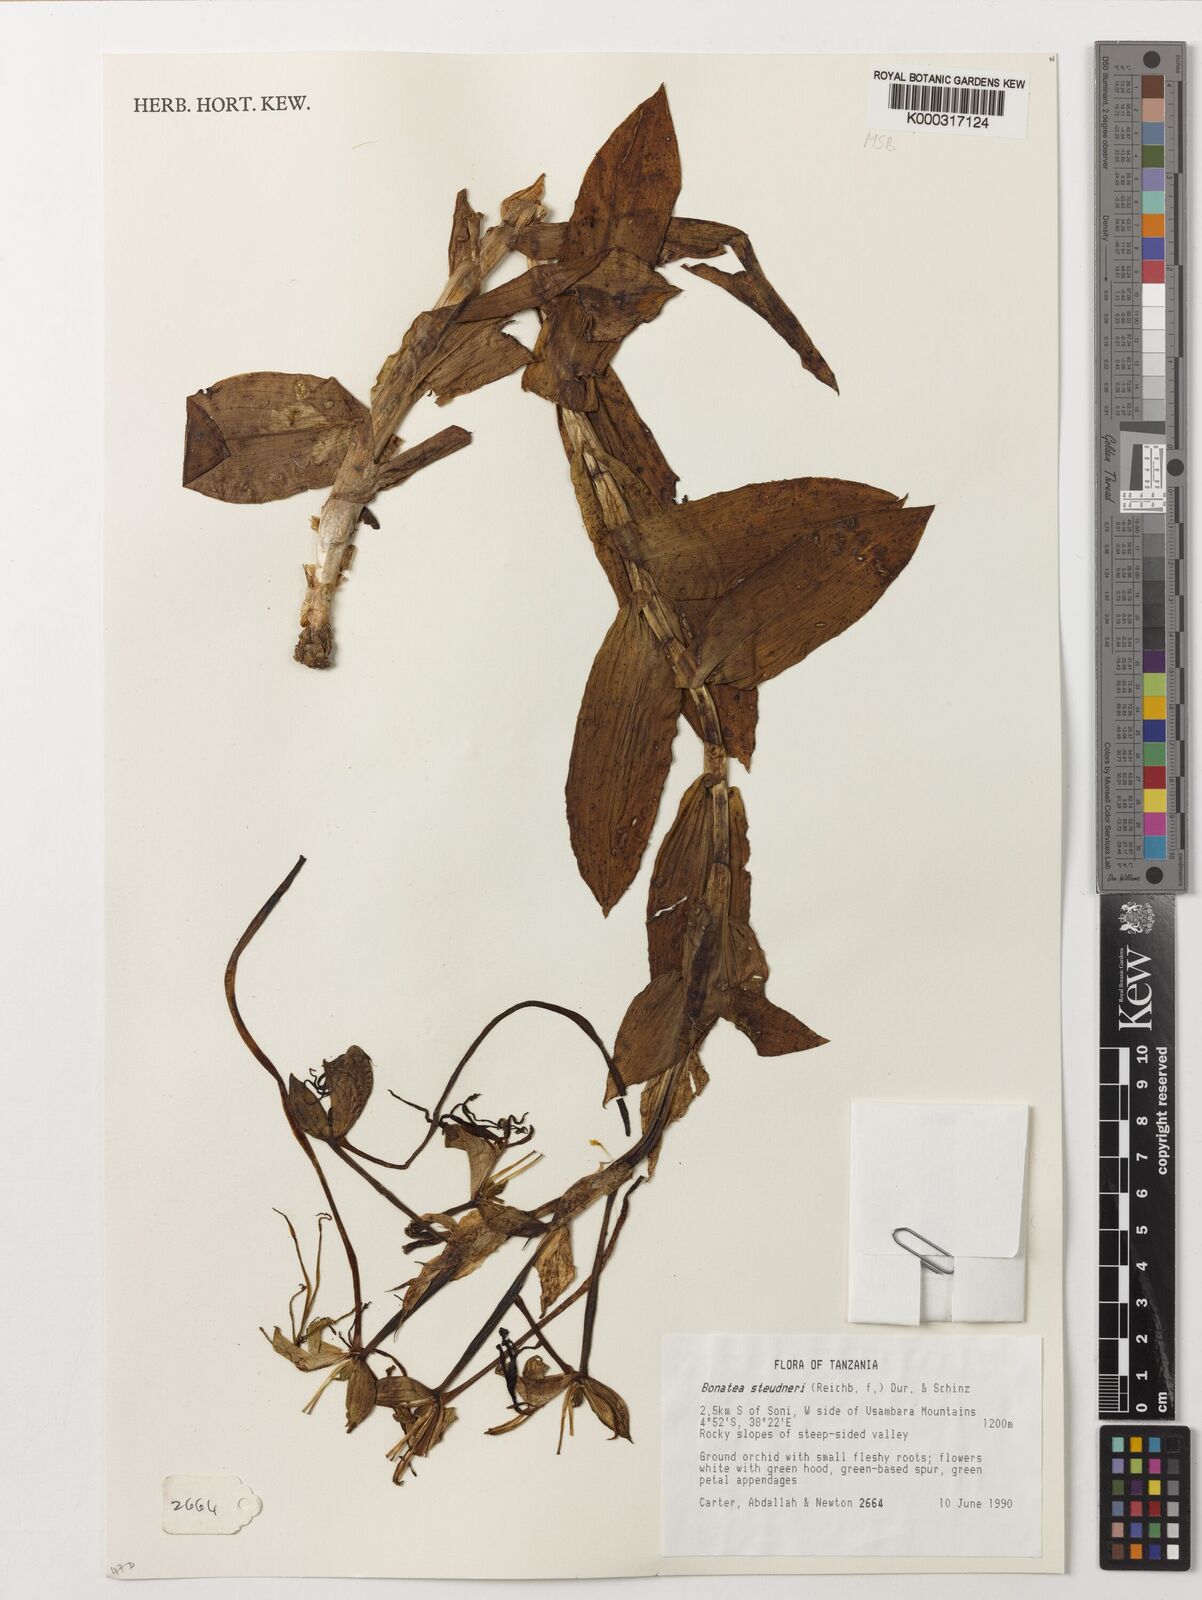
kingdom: Plantae
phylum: Tracheophyta
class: Liliopsida
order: Asparagales
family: Orchidaceae
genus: Bonatea
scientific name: Bonatea steudneri
